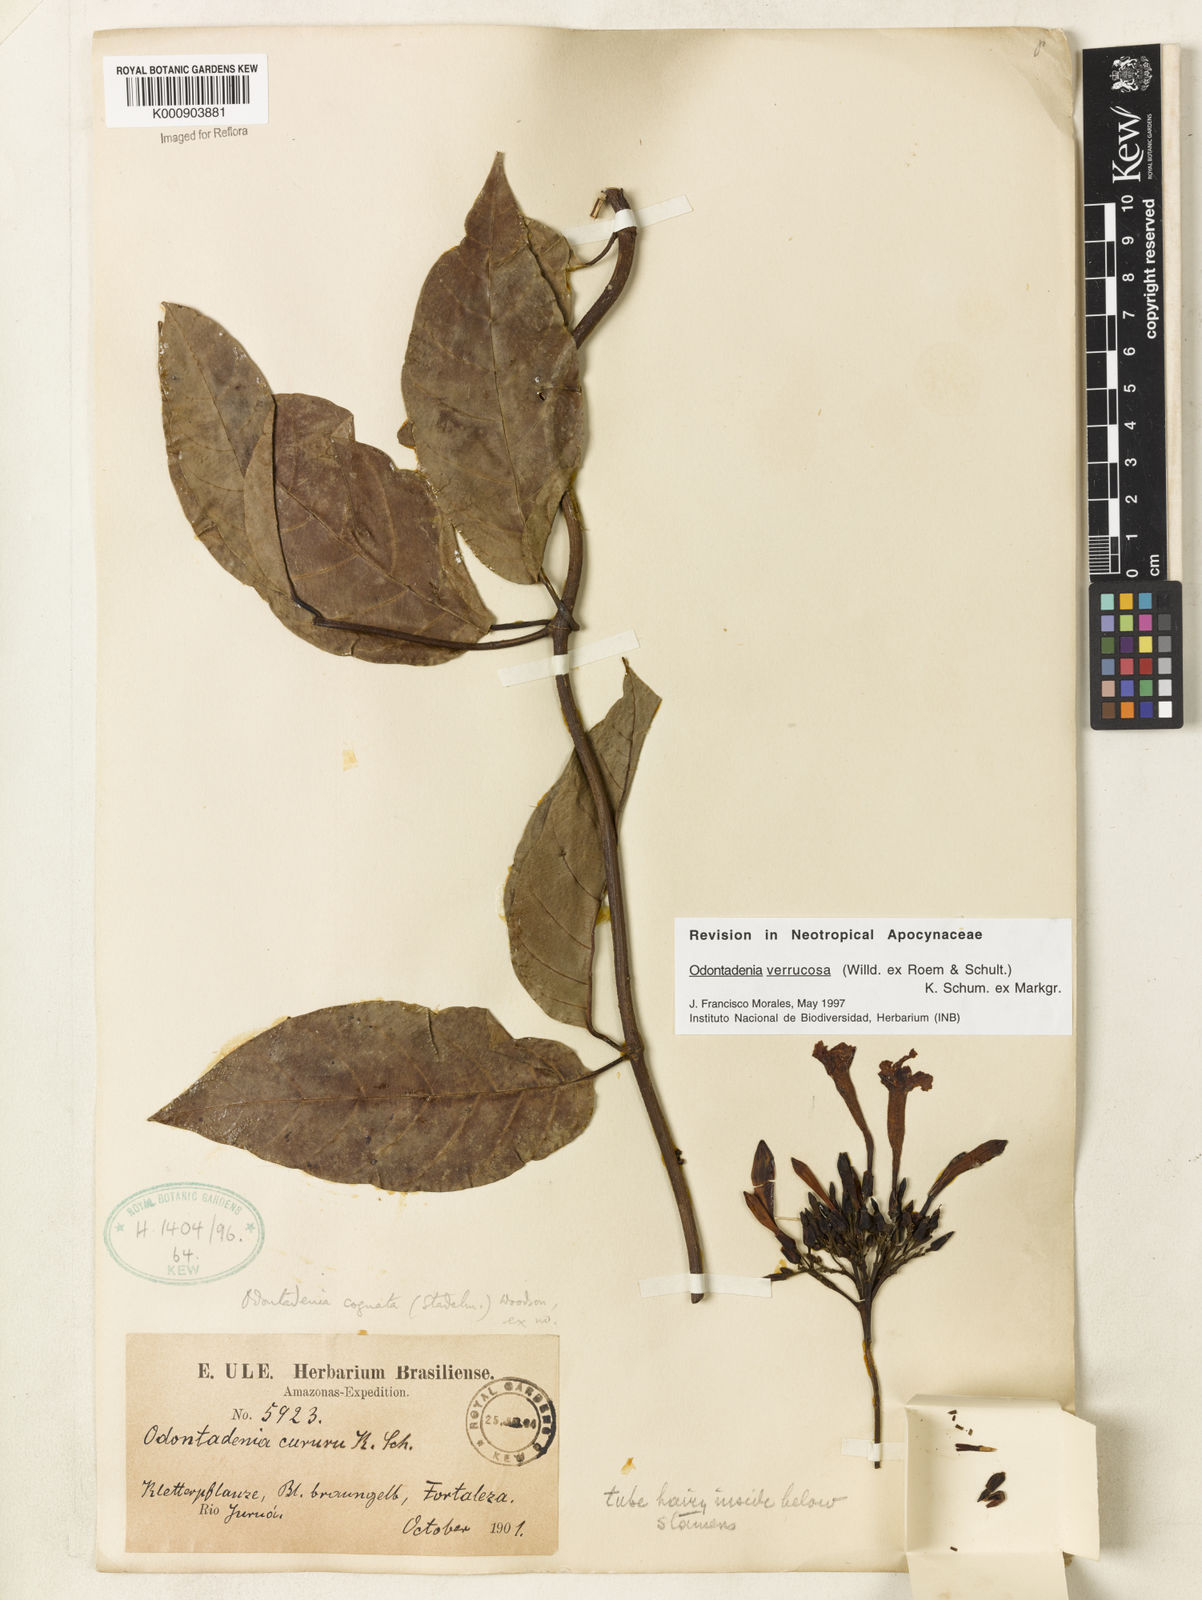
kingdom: Plantae
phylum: Tracheophyta
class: Magnoliopsida
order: Gentianales
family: Apocynaceae
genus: Odontadenia
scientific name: Odontadenia verrucosa
